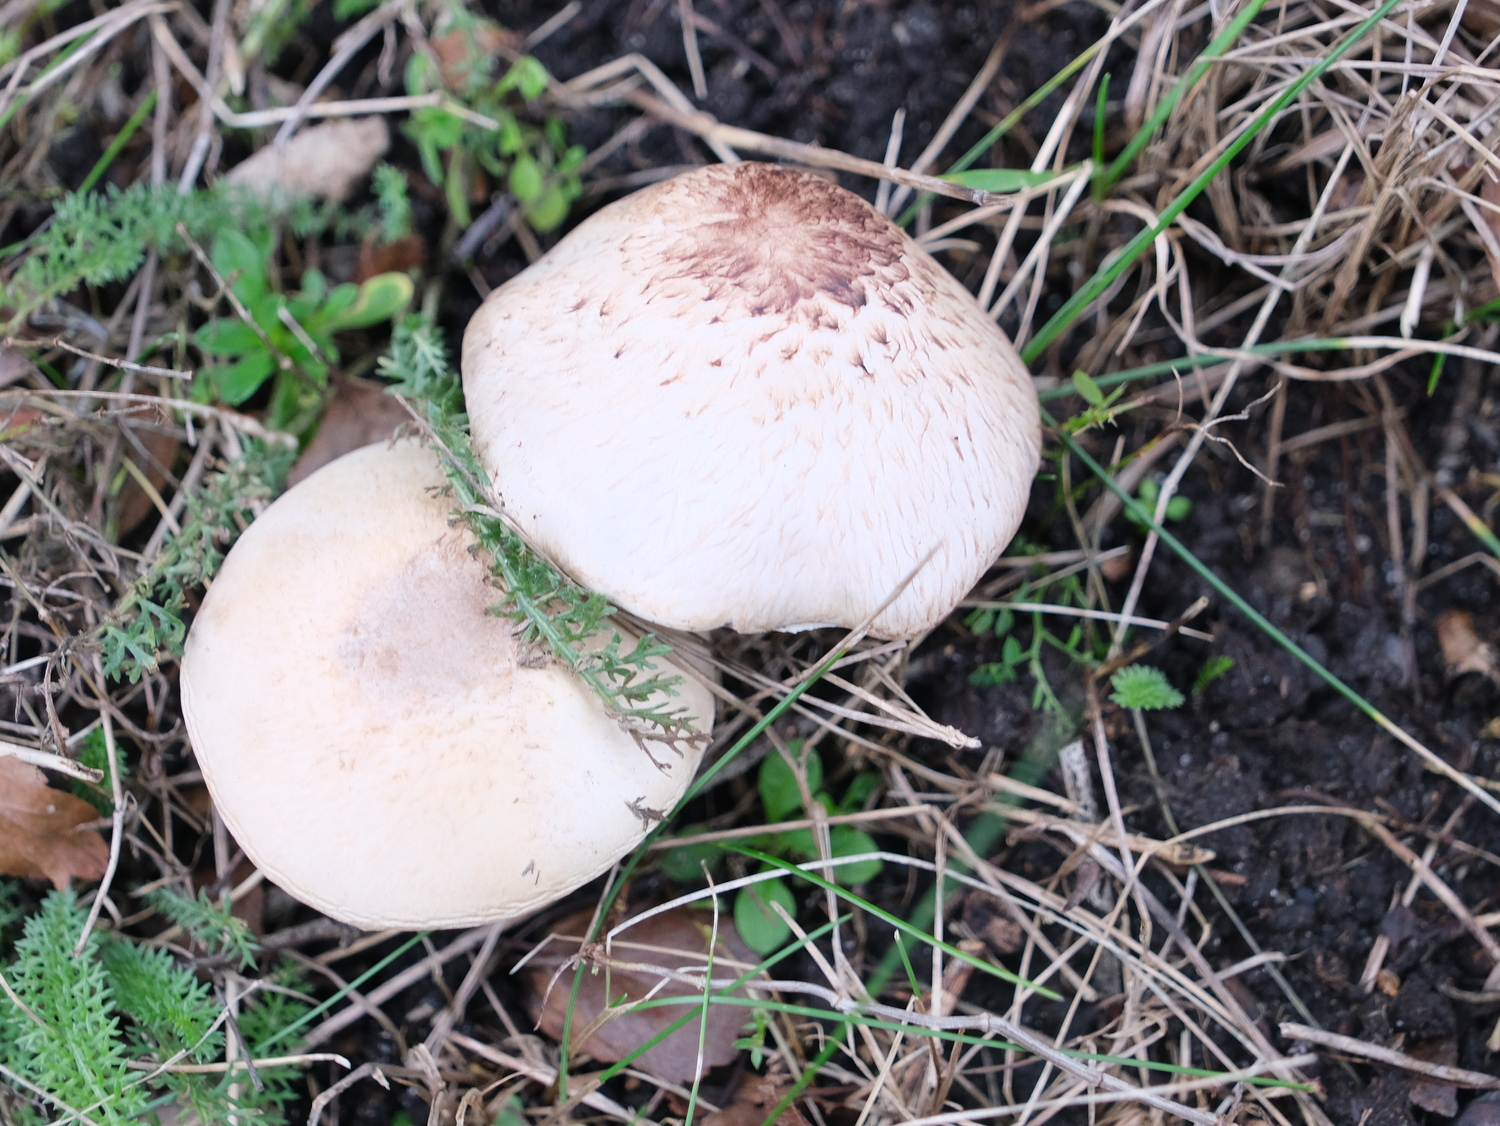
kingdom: Fungi
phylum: Basidiomycota
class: Agaricomycetes
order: Agaricales
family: Agaricaceae
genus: Agaricus
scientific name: Agaricus impudicus
